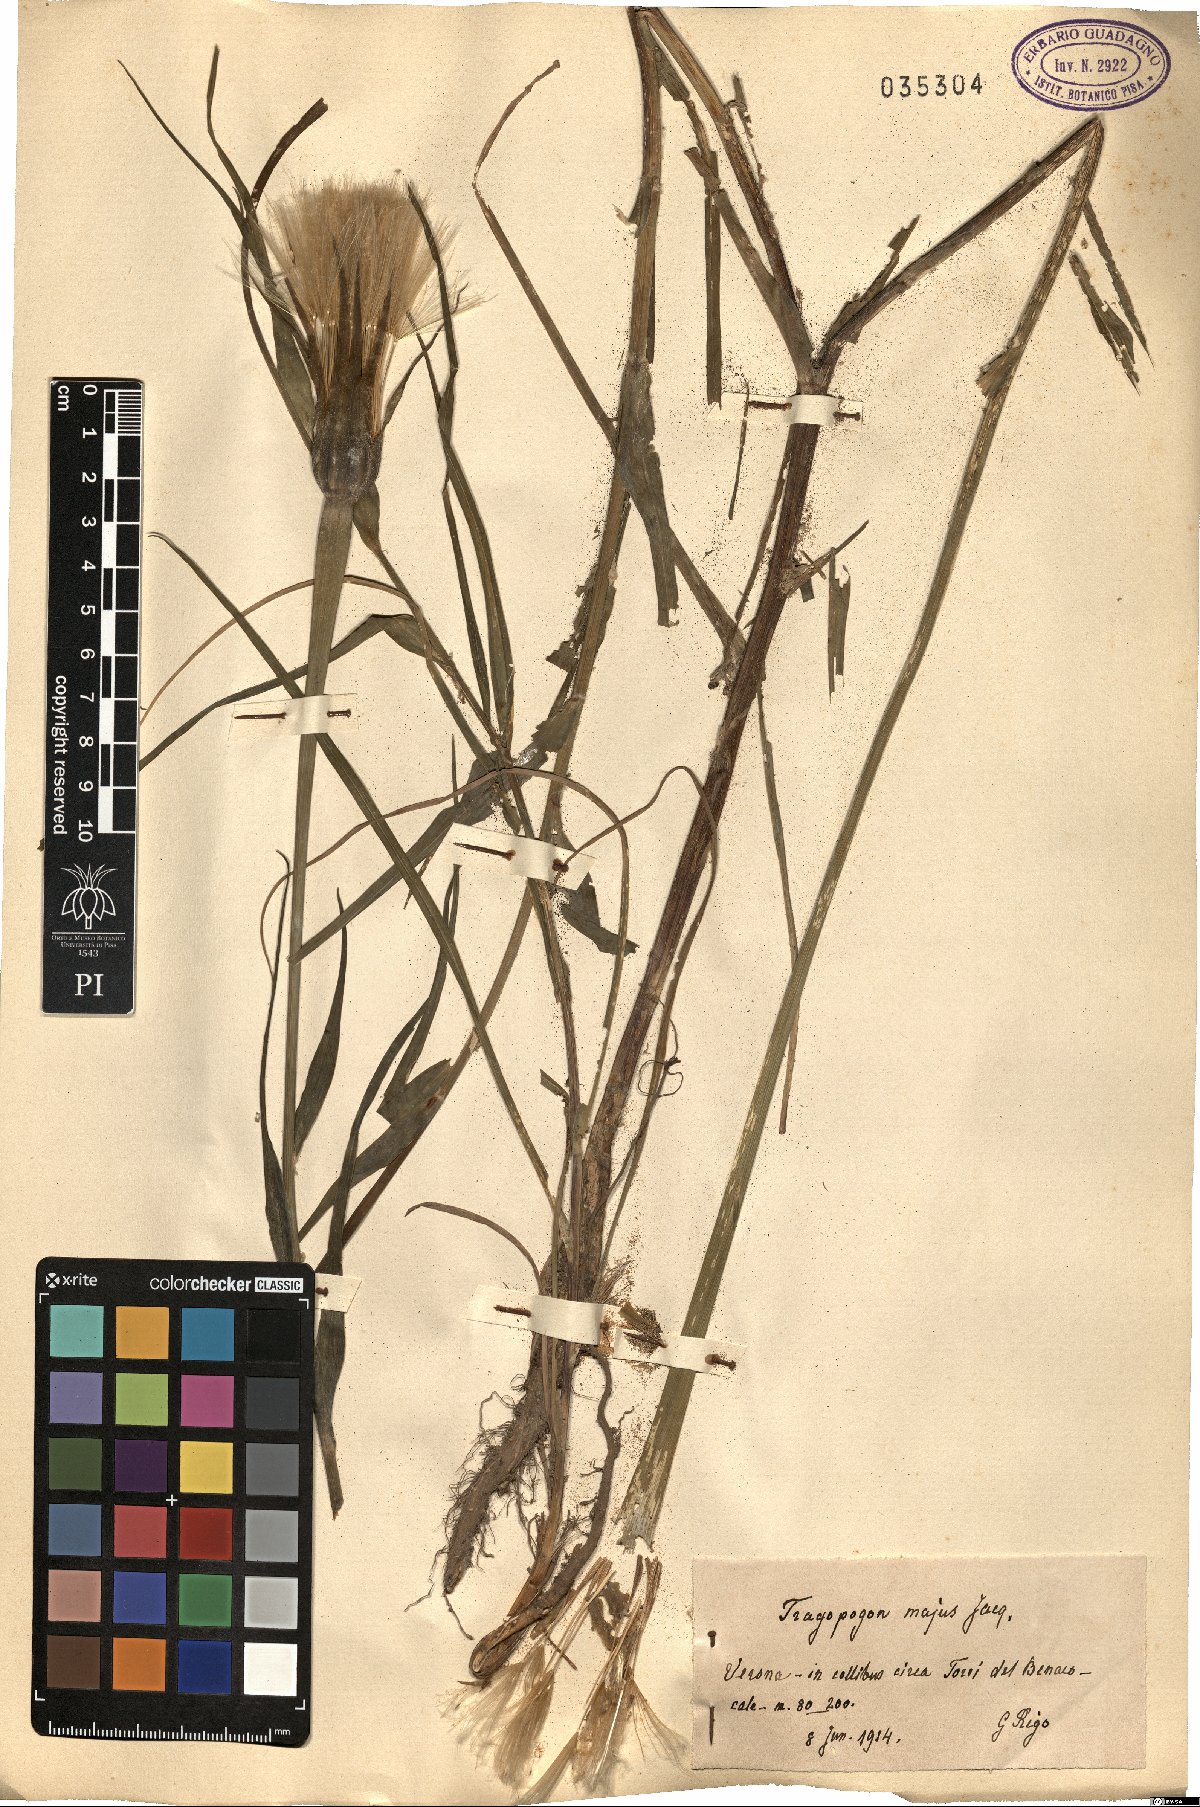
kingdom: Plantae
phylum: Tracheophyta
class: Magnoliopsida
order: Asterales
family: Asteraceae
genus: Tragopogon
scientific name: Tragopogon dubius
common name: Yellow salsify
